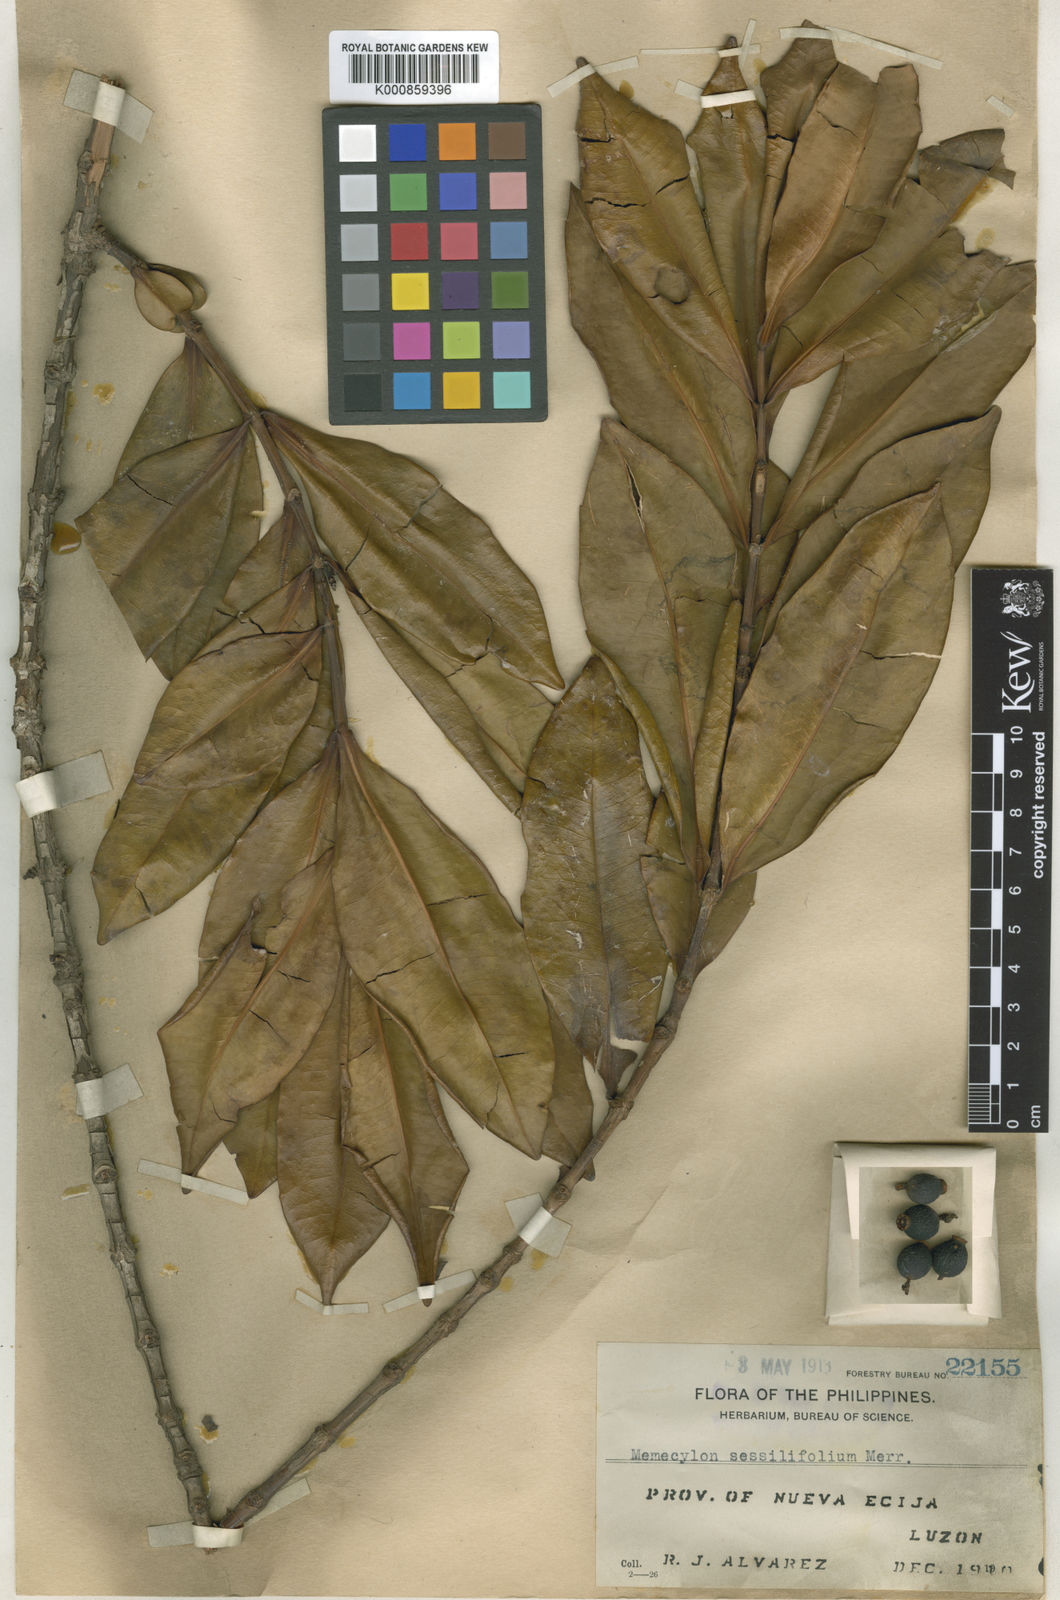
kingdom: Plantae
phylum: Tracheophyta
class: Magnoliopsida
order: Myrtales
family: Melastomataceae
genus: Memecylon
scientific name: Memecylon sessilifolium
